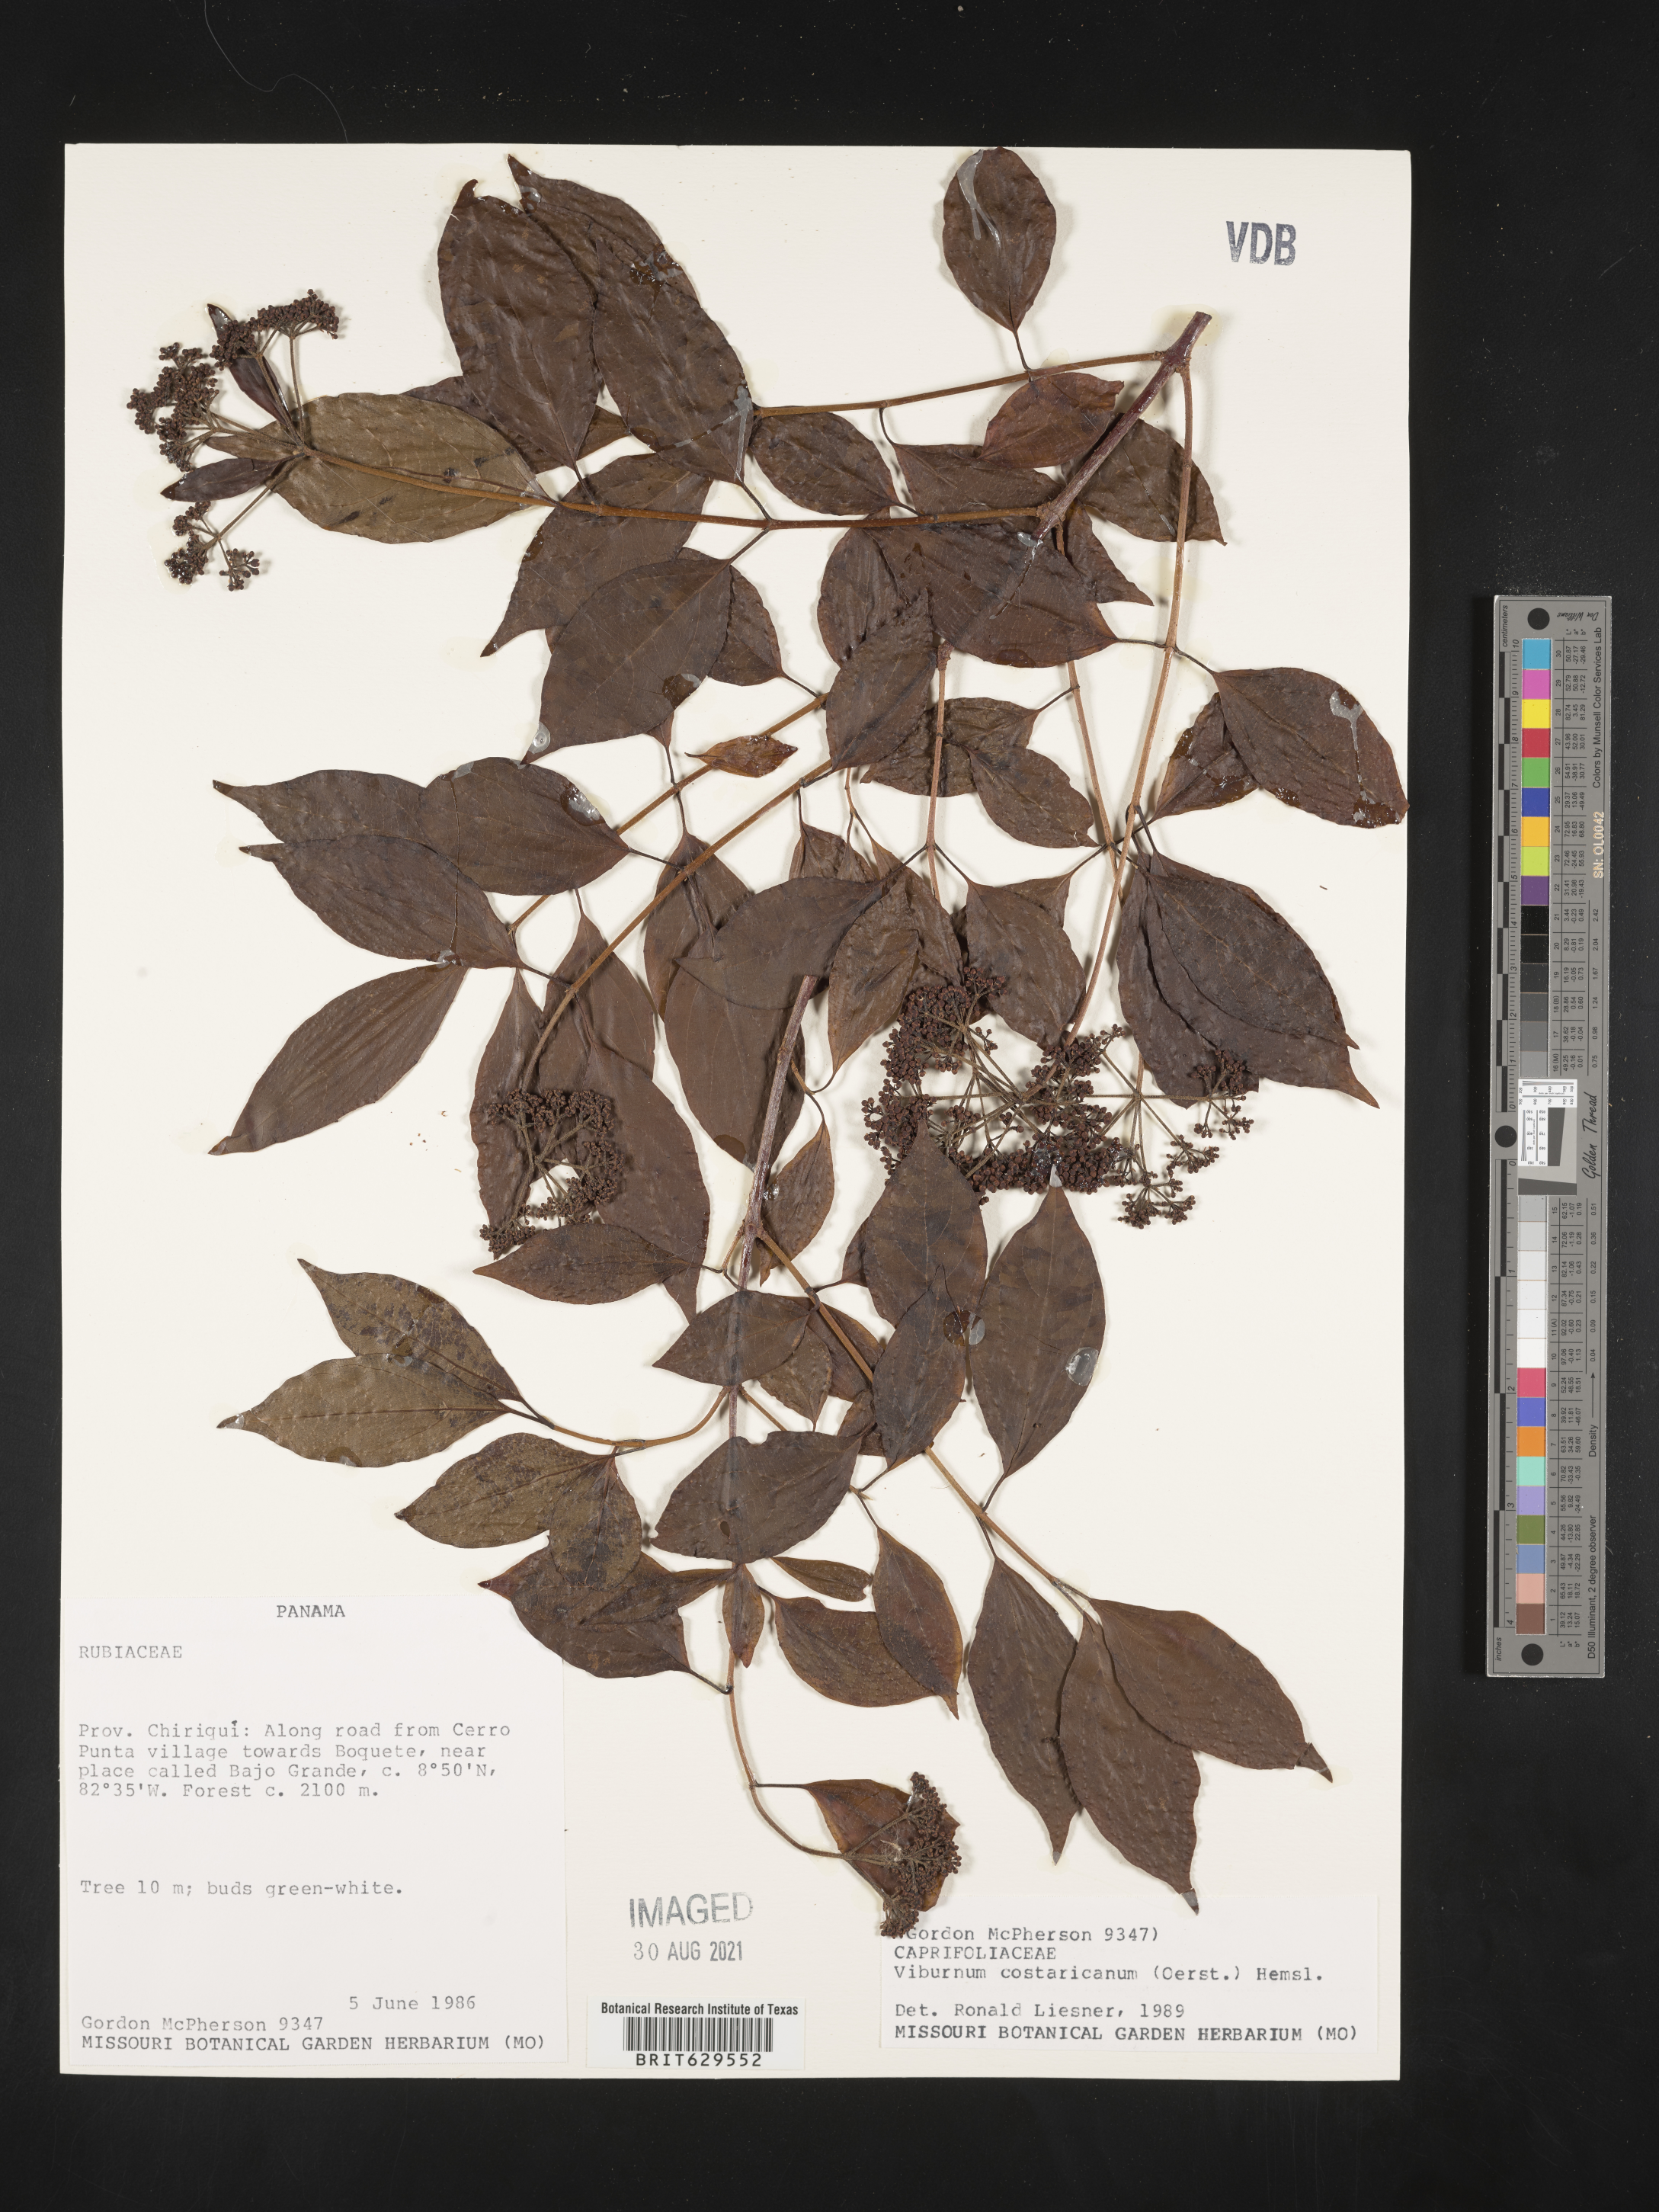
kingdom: Plantae
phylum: Tracheophyta
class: Magnoliopsida
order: Dipsacales
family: Viburnaceae
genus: Viburnum
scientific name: Viburnum costaricanum
